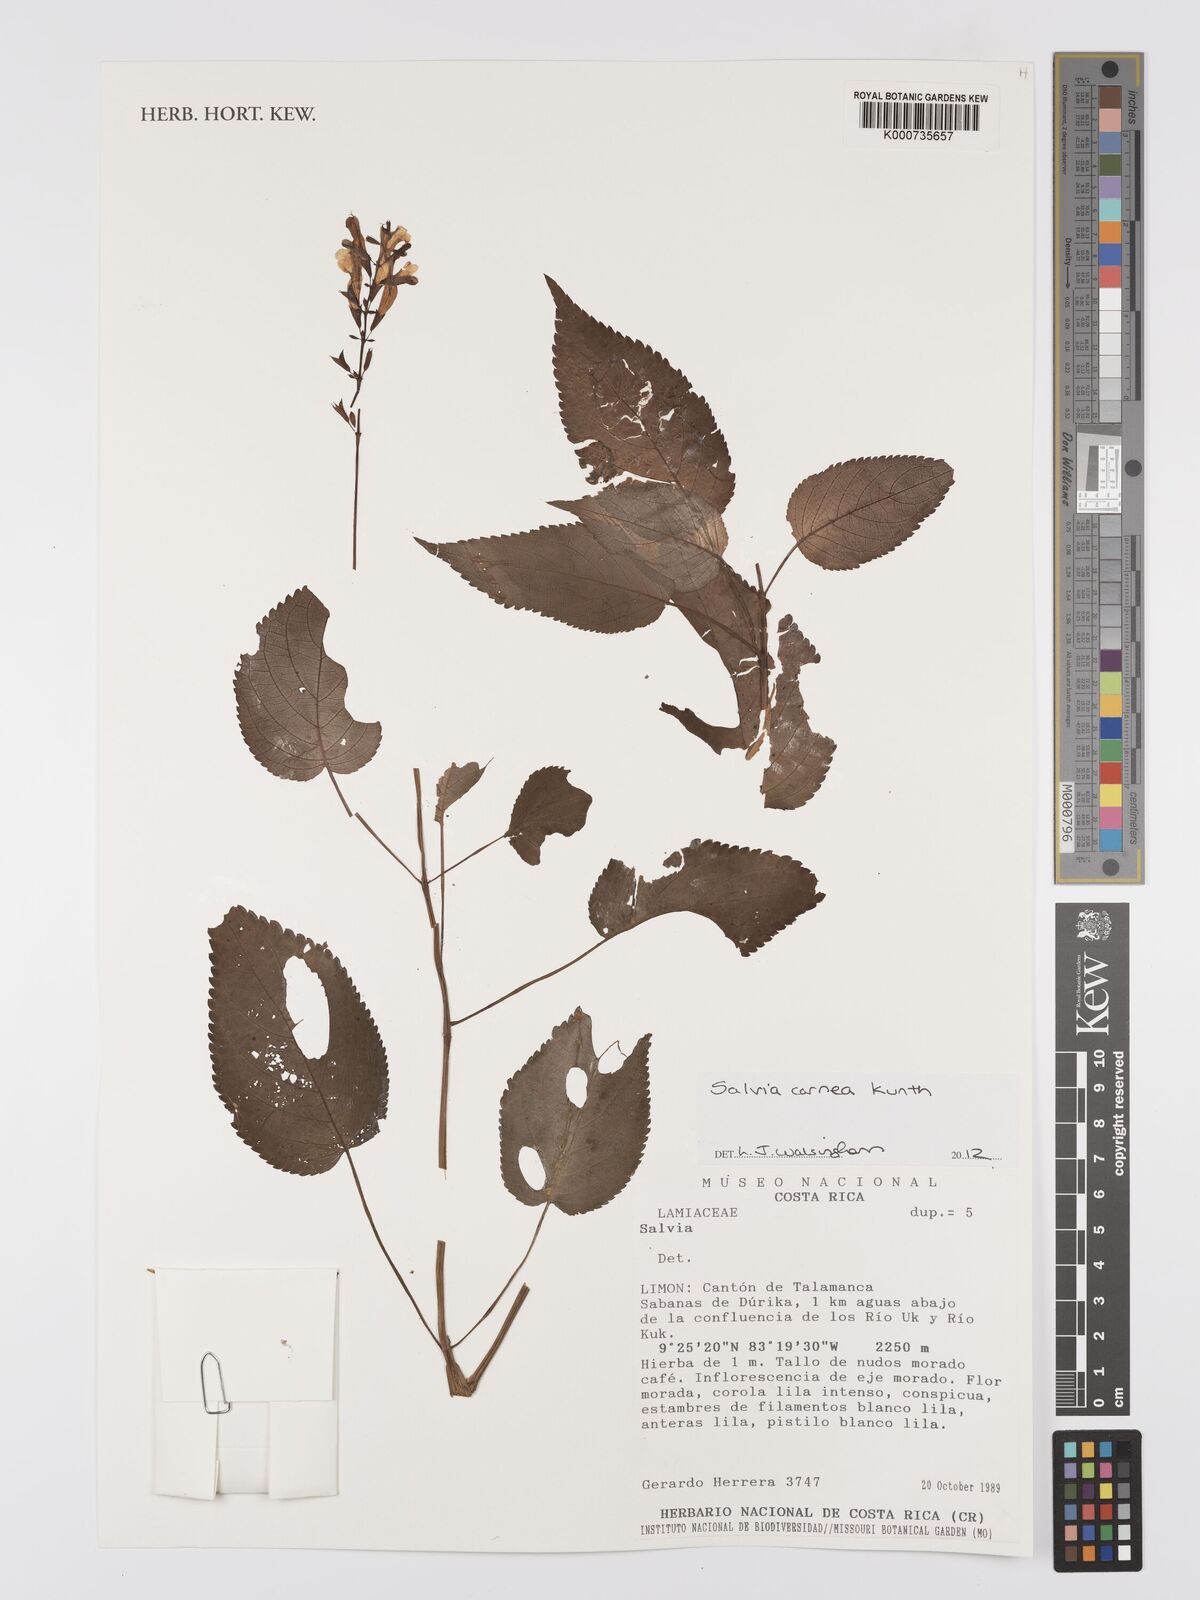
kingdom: Plantae
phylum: Tracheophyta
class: Magnoliopsida
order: Lamiales
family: Lamiaceae
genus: Salvia
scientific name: Salvia mocinoi
